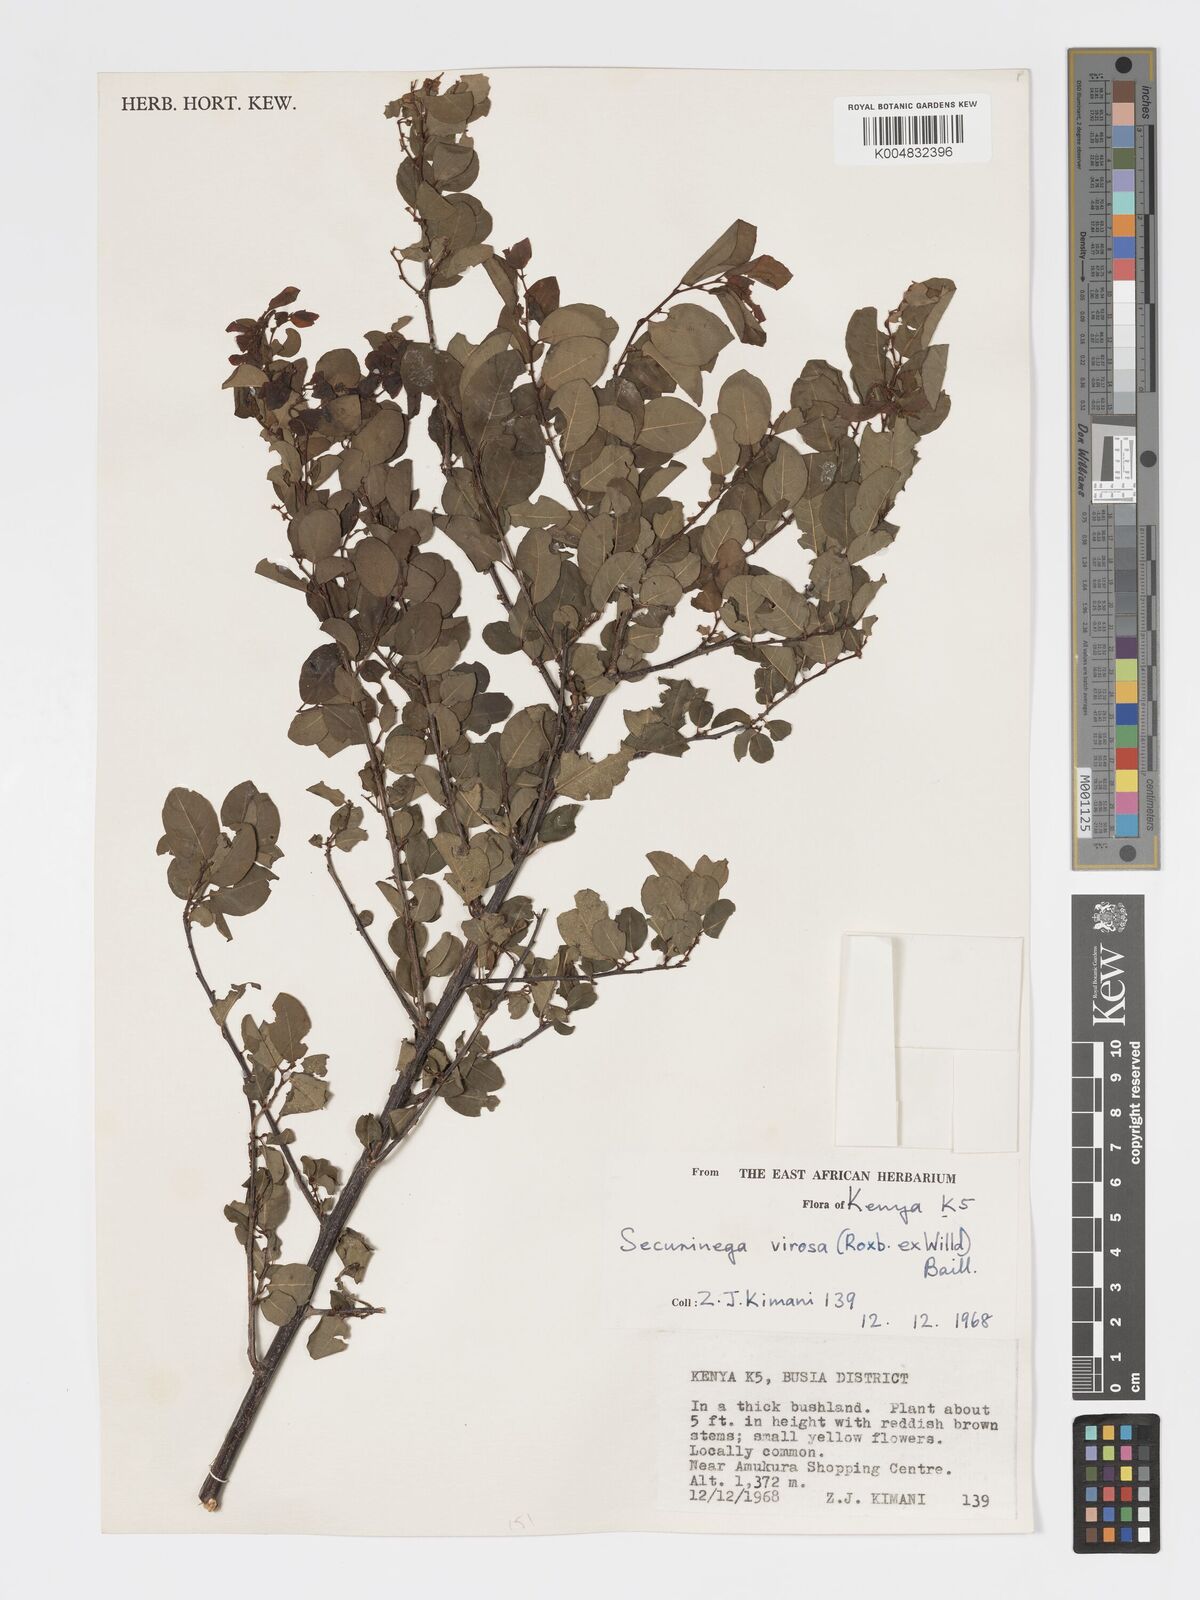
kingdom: Plantae
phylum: Tracheophyta
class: Magnoliopsida
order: Malpighiales
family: Phyllanthaceae
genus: Flueggea
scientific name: Flueggea virosa
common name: Common bushweed
